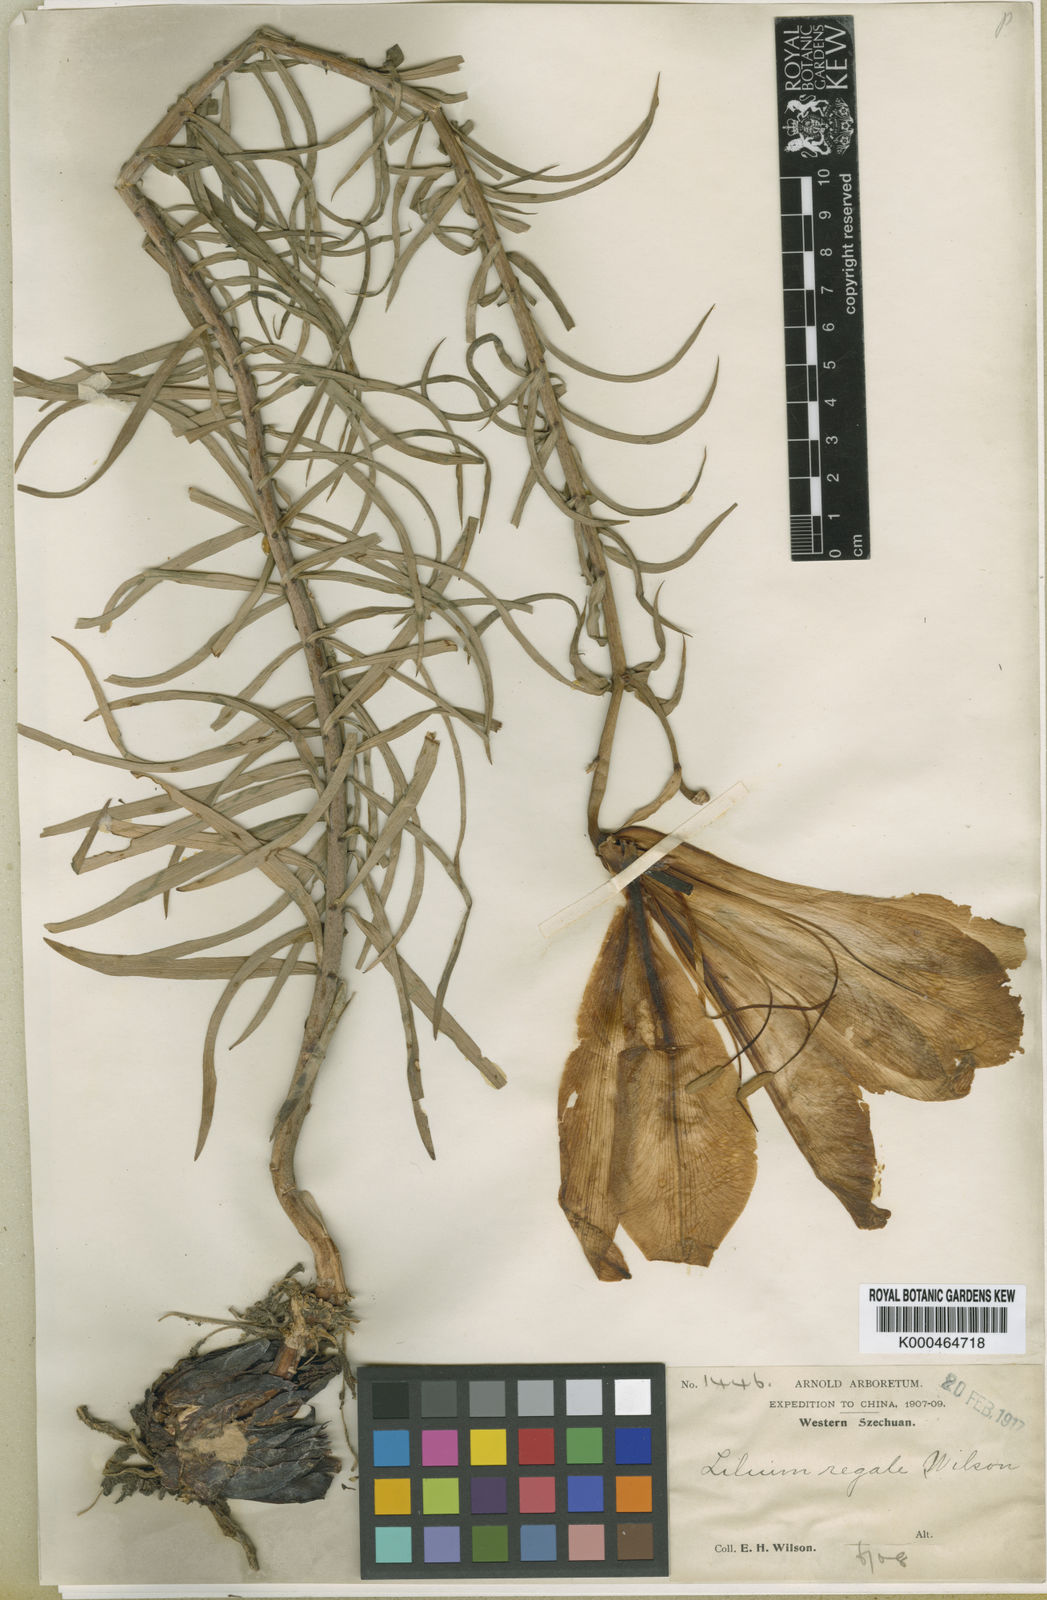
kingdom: Plantae
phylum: Tracheophyta
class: Liliopsida
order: Liliales
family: Liliaceae
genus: Lilium
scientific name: Lilium regale
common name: Regal lily
